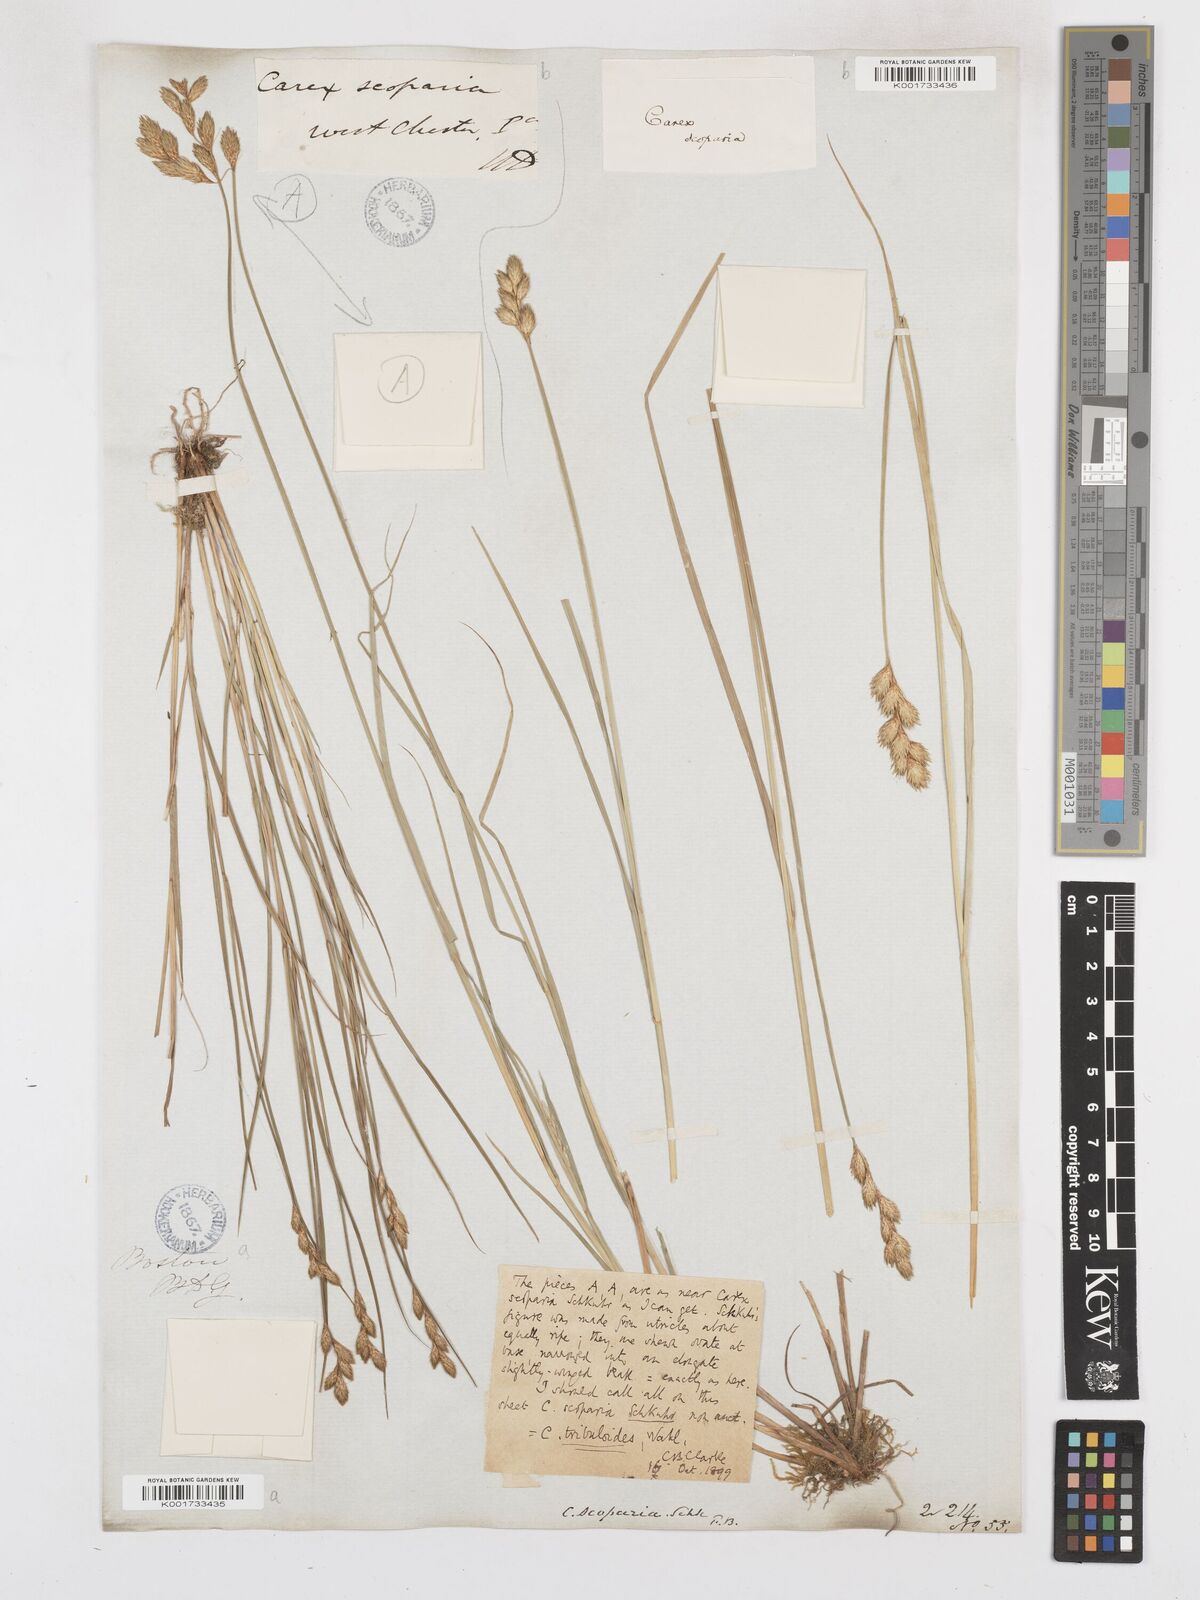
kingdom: Plantae
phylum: Tracheophyta
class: Liliopsida
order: Poales
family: Cyperaceae
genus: Carex
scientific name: Carex tribuloides
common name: Blunt broom sedge
